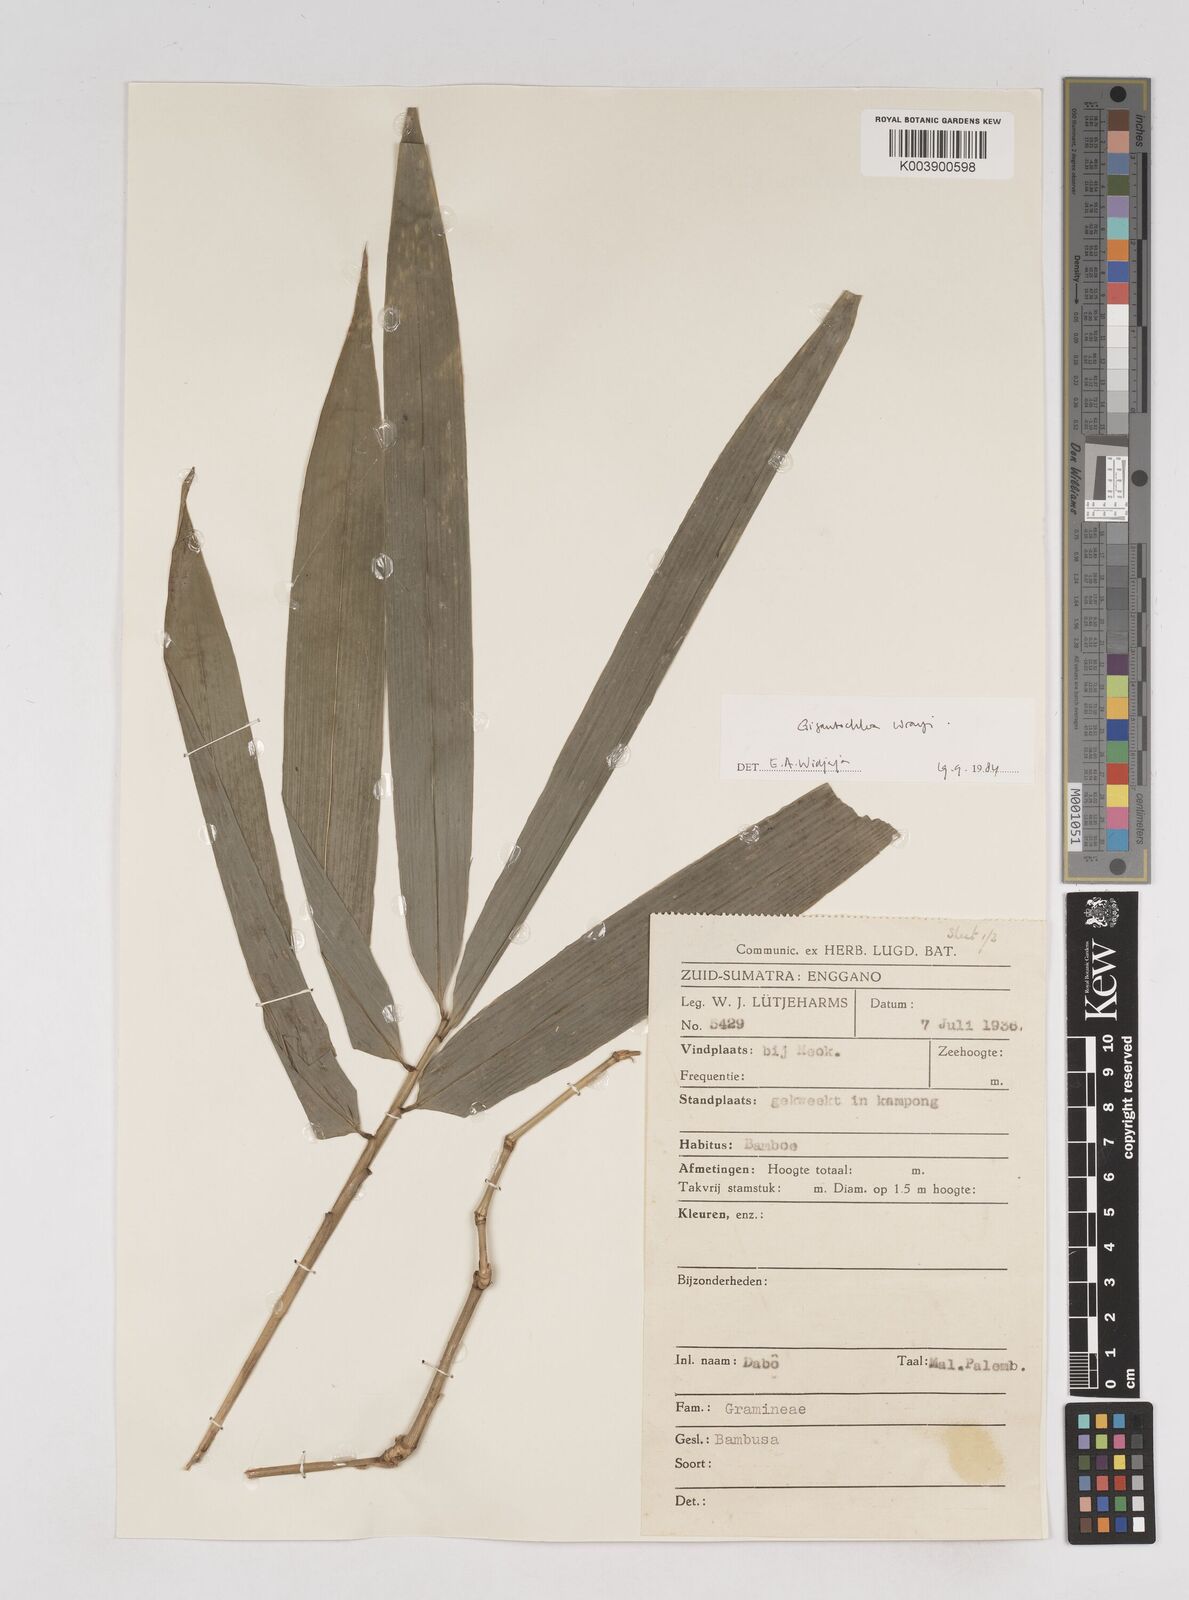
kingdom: Plantae
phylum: Tracheophyta
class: Liliopsida
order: Poales
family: Poaceae
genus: Gigantochloa
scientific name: Gigantochloa wrayi
